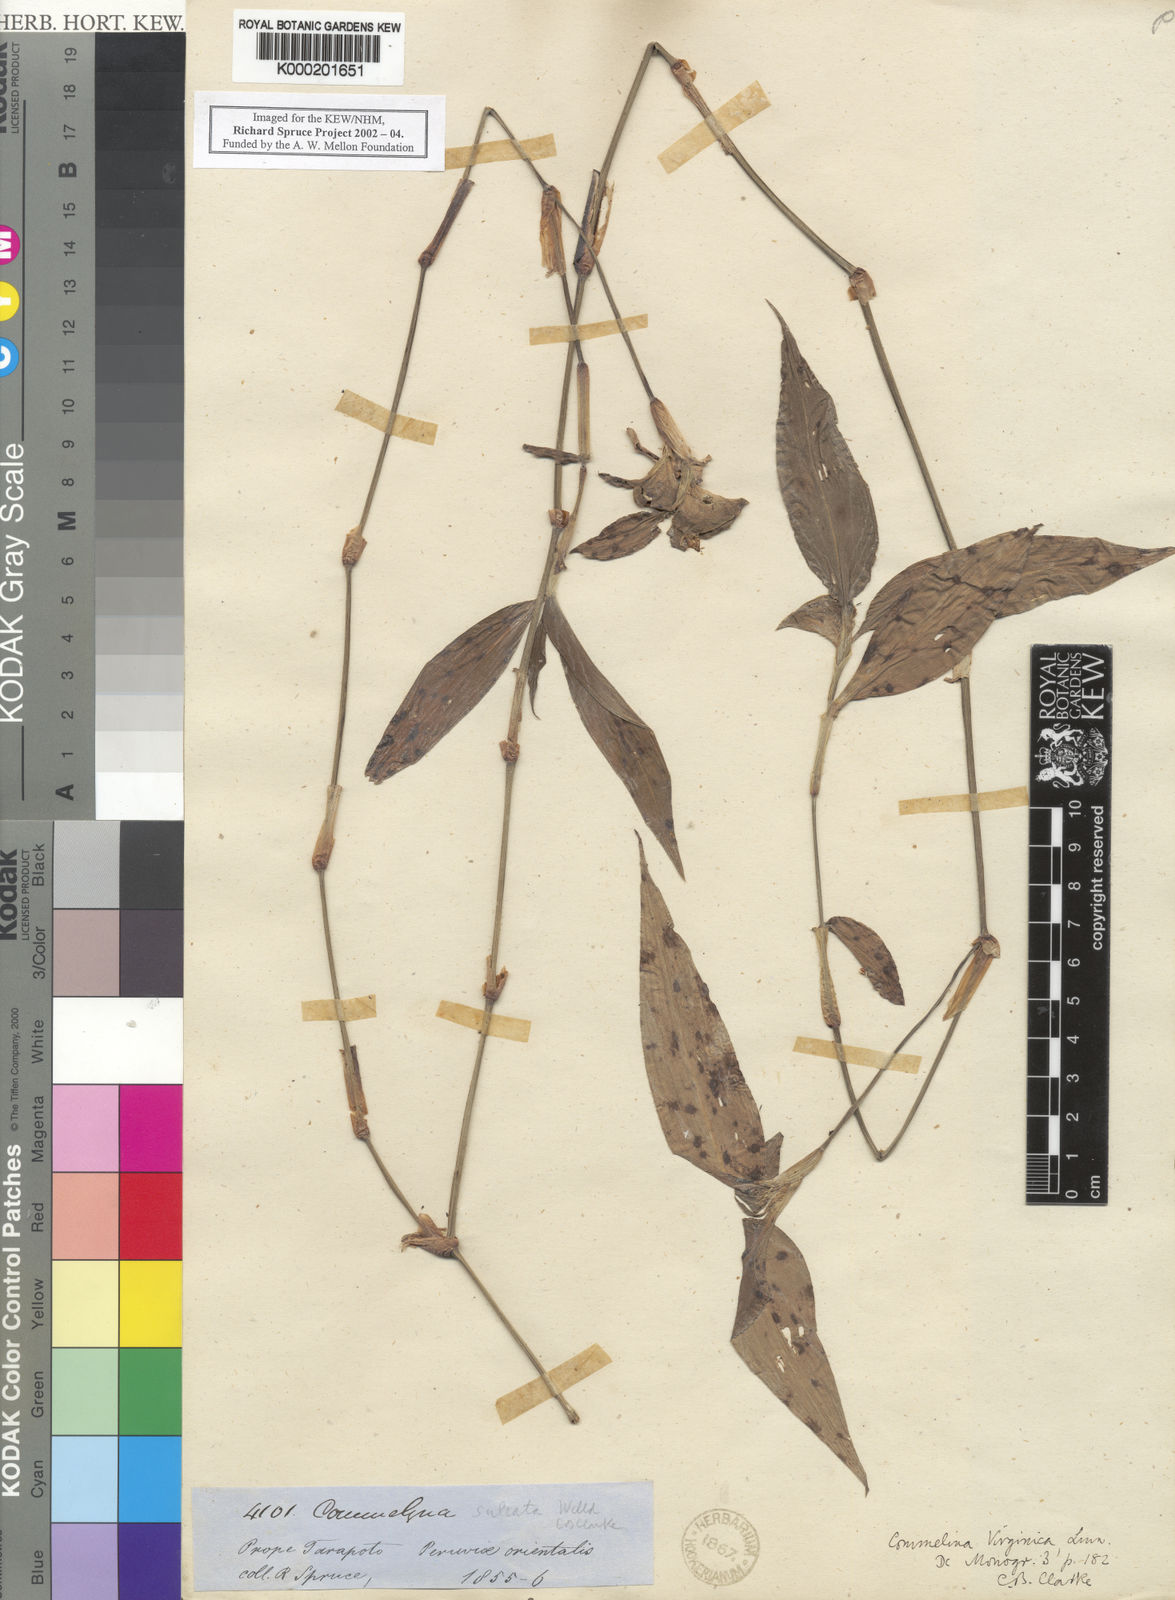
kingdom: Plantae
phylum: Tracheophyta
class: Liliopsida
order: Commelinales
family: Commelinaceae
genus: Commelina
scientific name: Commelina virginica
